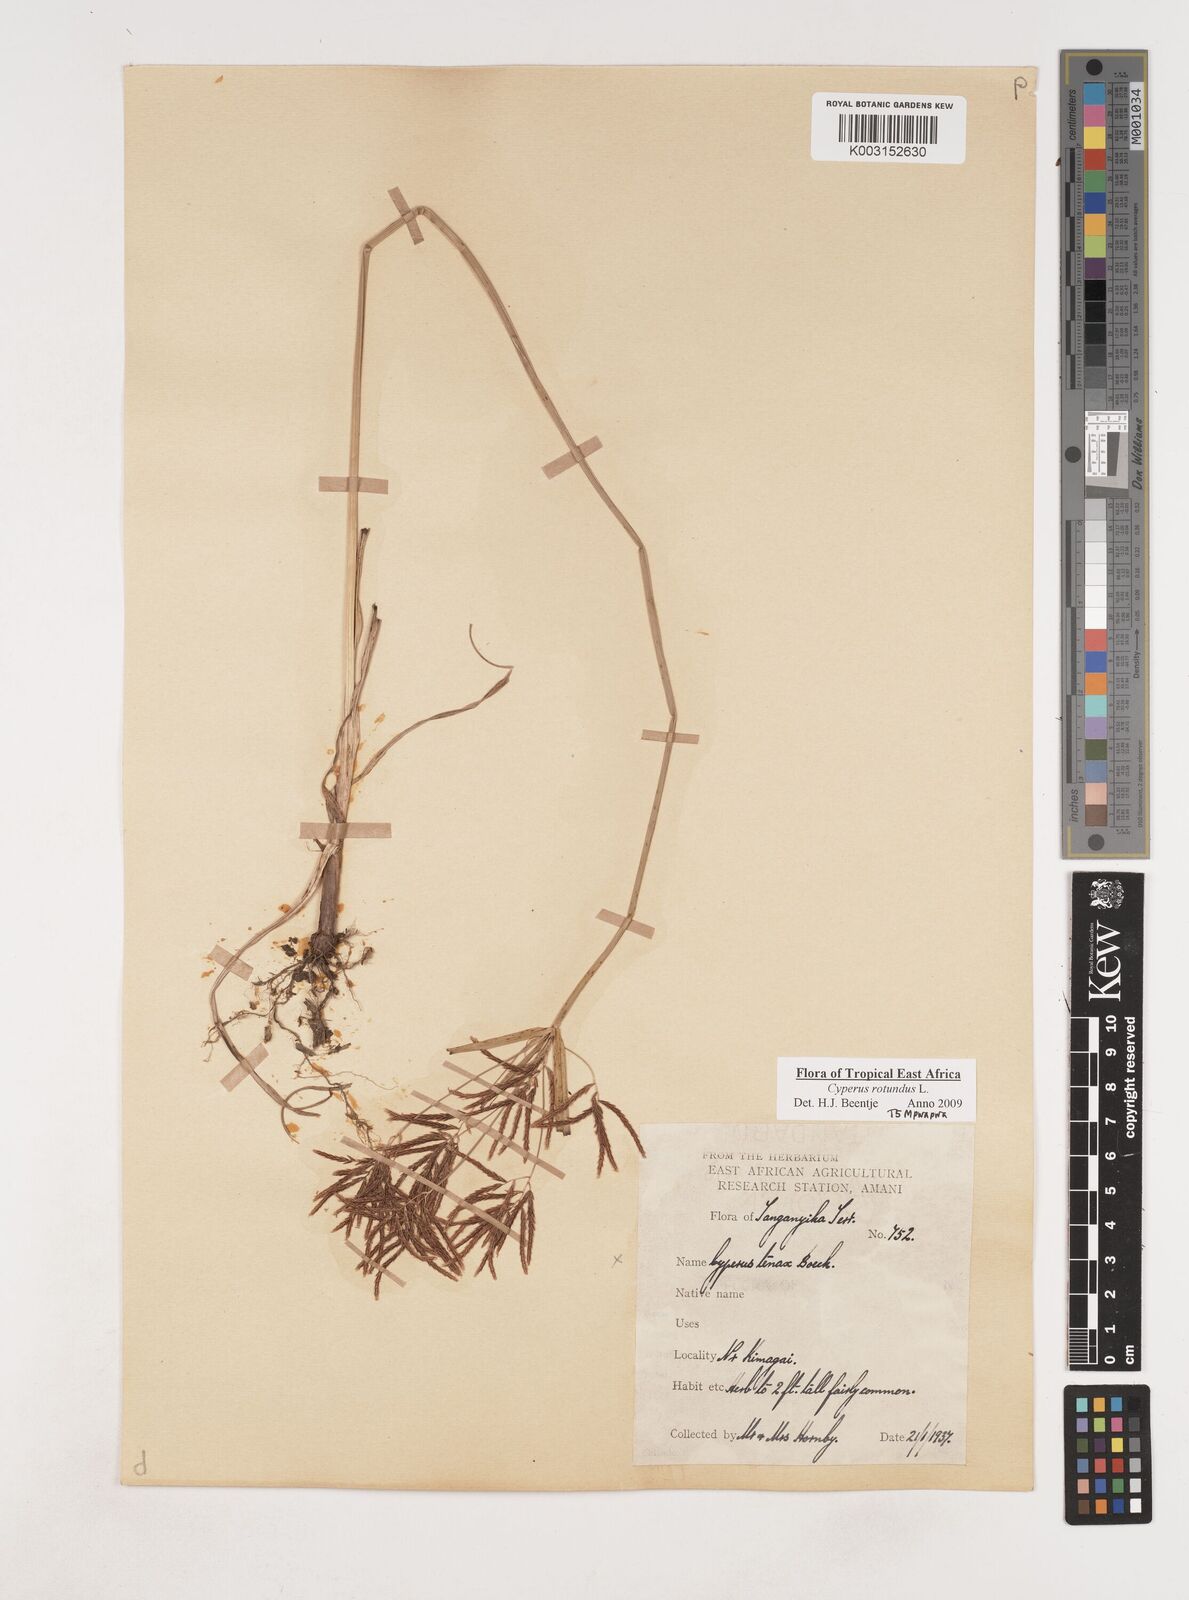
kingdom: Plantae
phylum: Tracheophyta
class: Liliopsida
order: Poales
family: Cyperaceae
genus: Cyperus
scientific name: Cyperus rotundus
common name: Nutgrass
